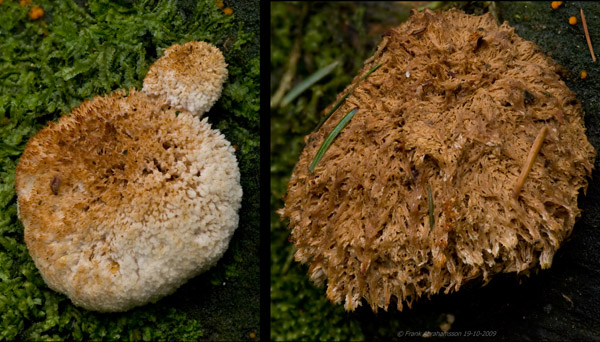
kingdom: Fungi
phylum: Basidiomycota
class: Agaricomycetes
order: Polyporales
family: Dacryobolaceae
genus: Postia
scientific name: Postia ptychogaster
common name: støvende kødporesvamp
